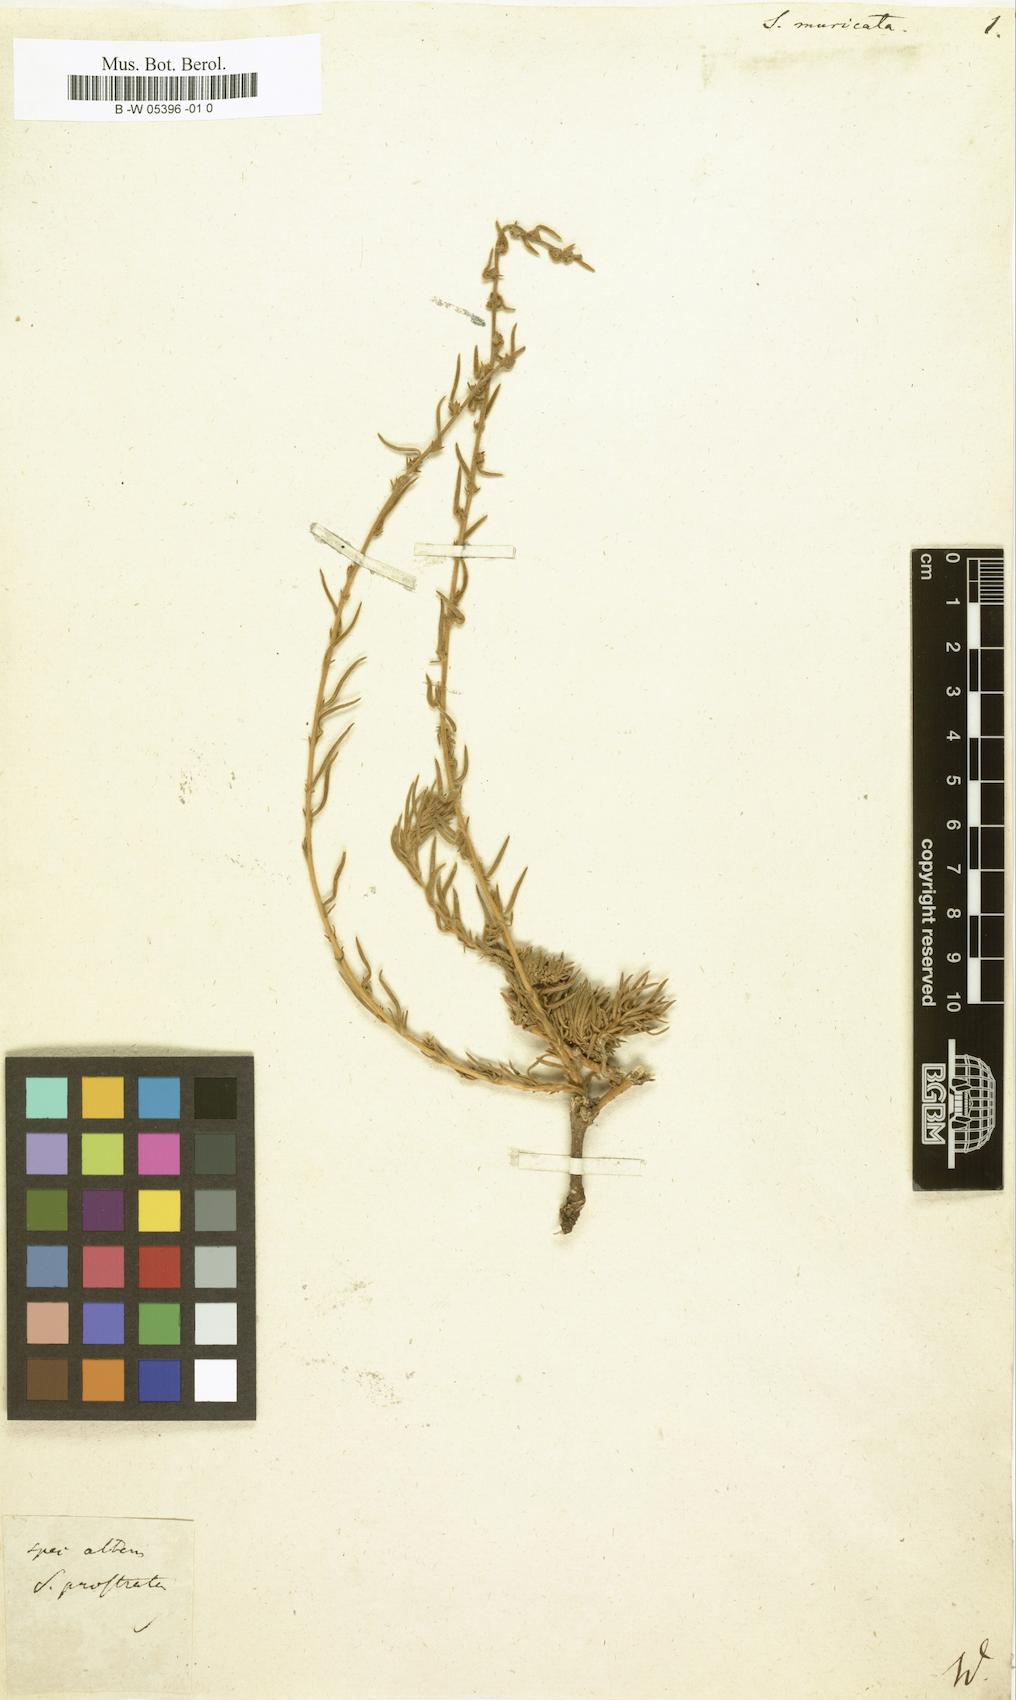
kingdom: Plantae
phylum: Tracheophyta
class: Magnoliopsida
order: Caryophyllales
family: Amaranthaceae
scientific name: Amaranthaceae
